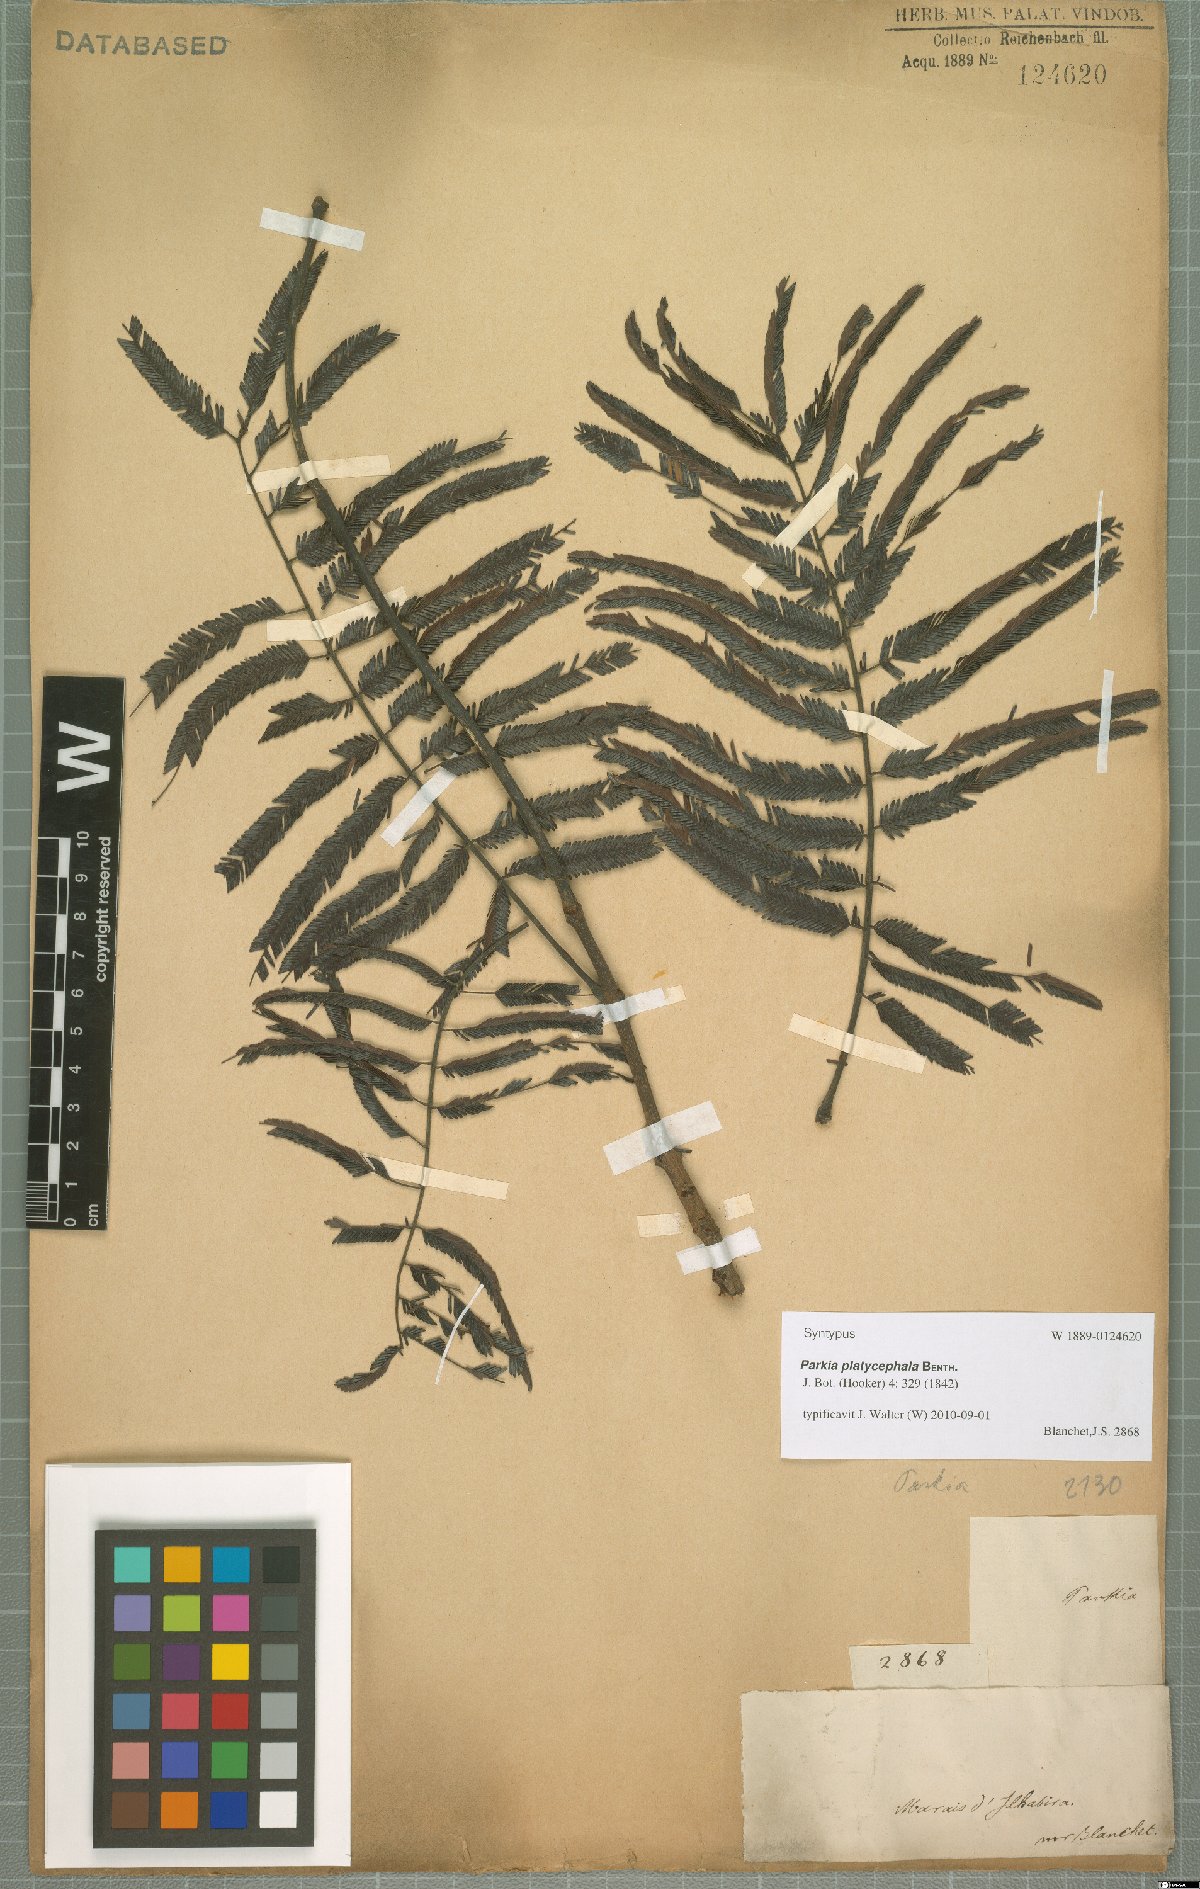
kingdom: Plantae
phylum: Tracheophyta
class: Magnoliopsida
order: Fabales
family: Fabaceae
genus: Parkia
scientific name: Parkia platycephala
